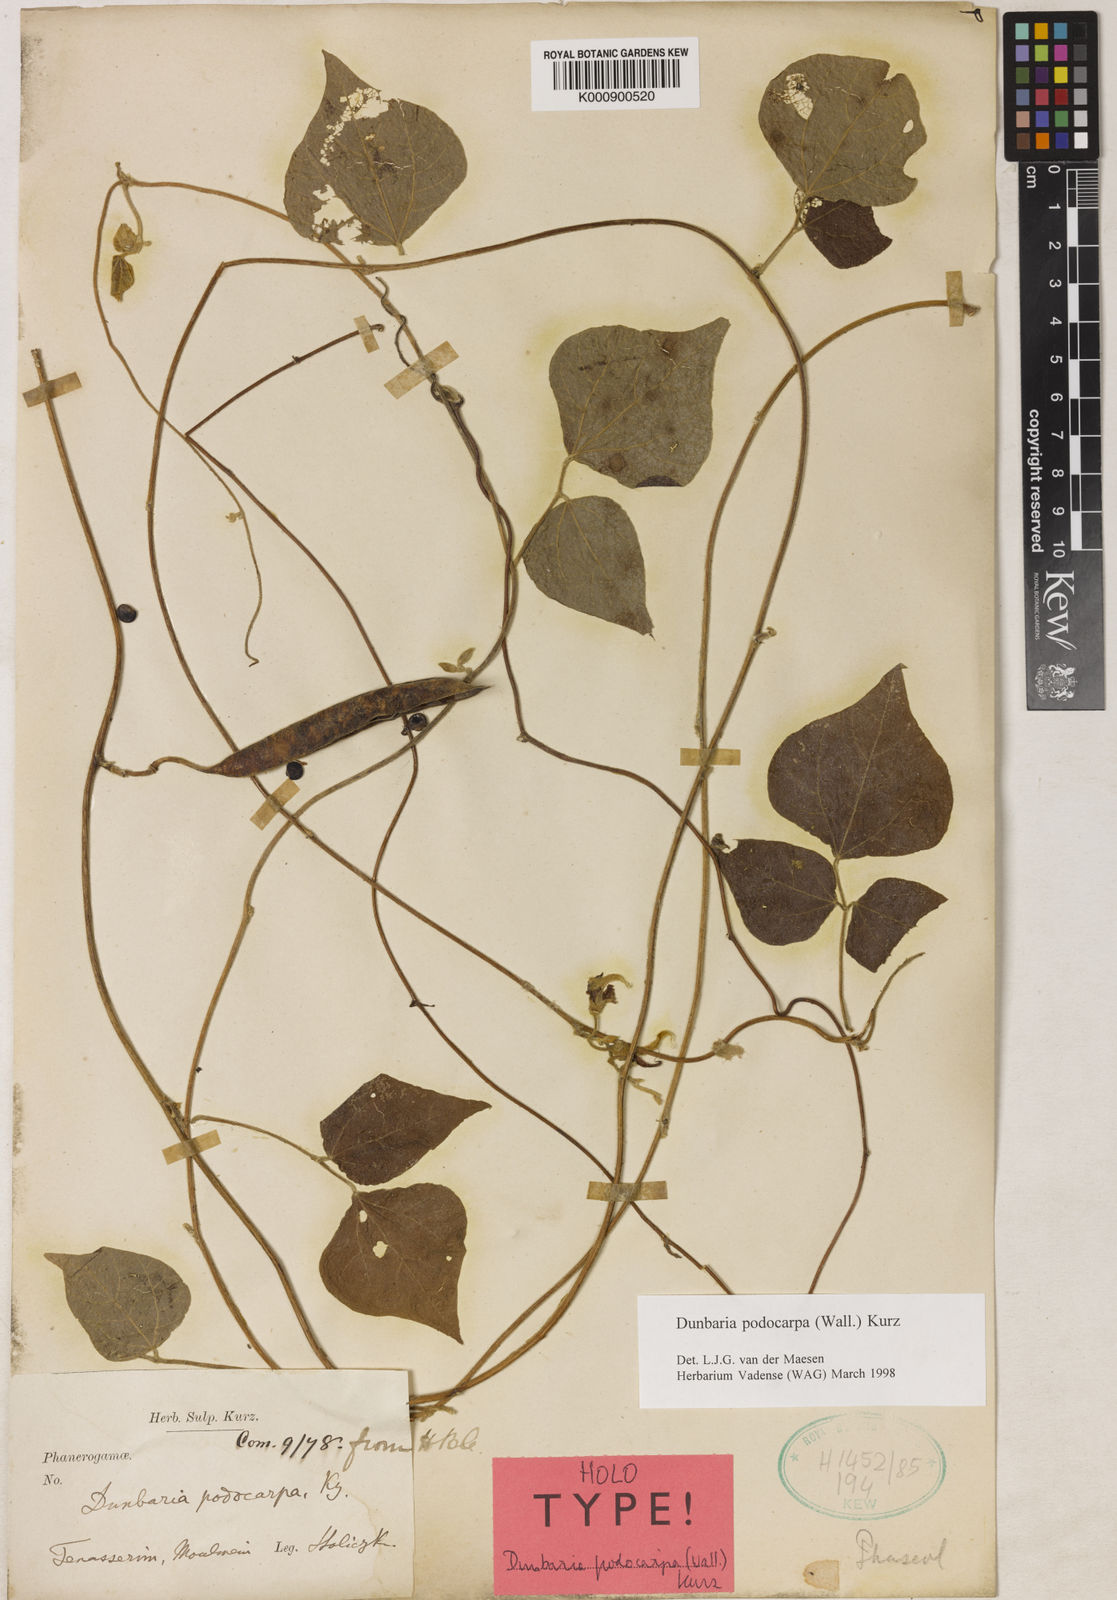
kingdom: Plantae
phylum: Tracheophyta
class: Magnoliopsida
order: Fabales
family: Fabaceae
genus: Dunbaria
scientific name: Dunbaria podocarpa
